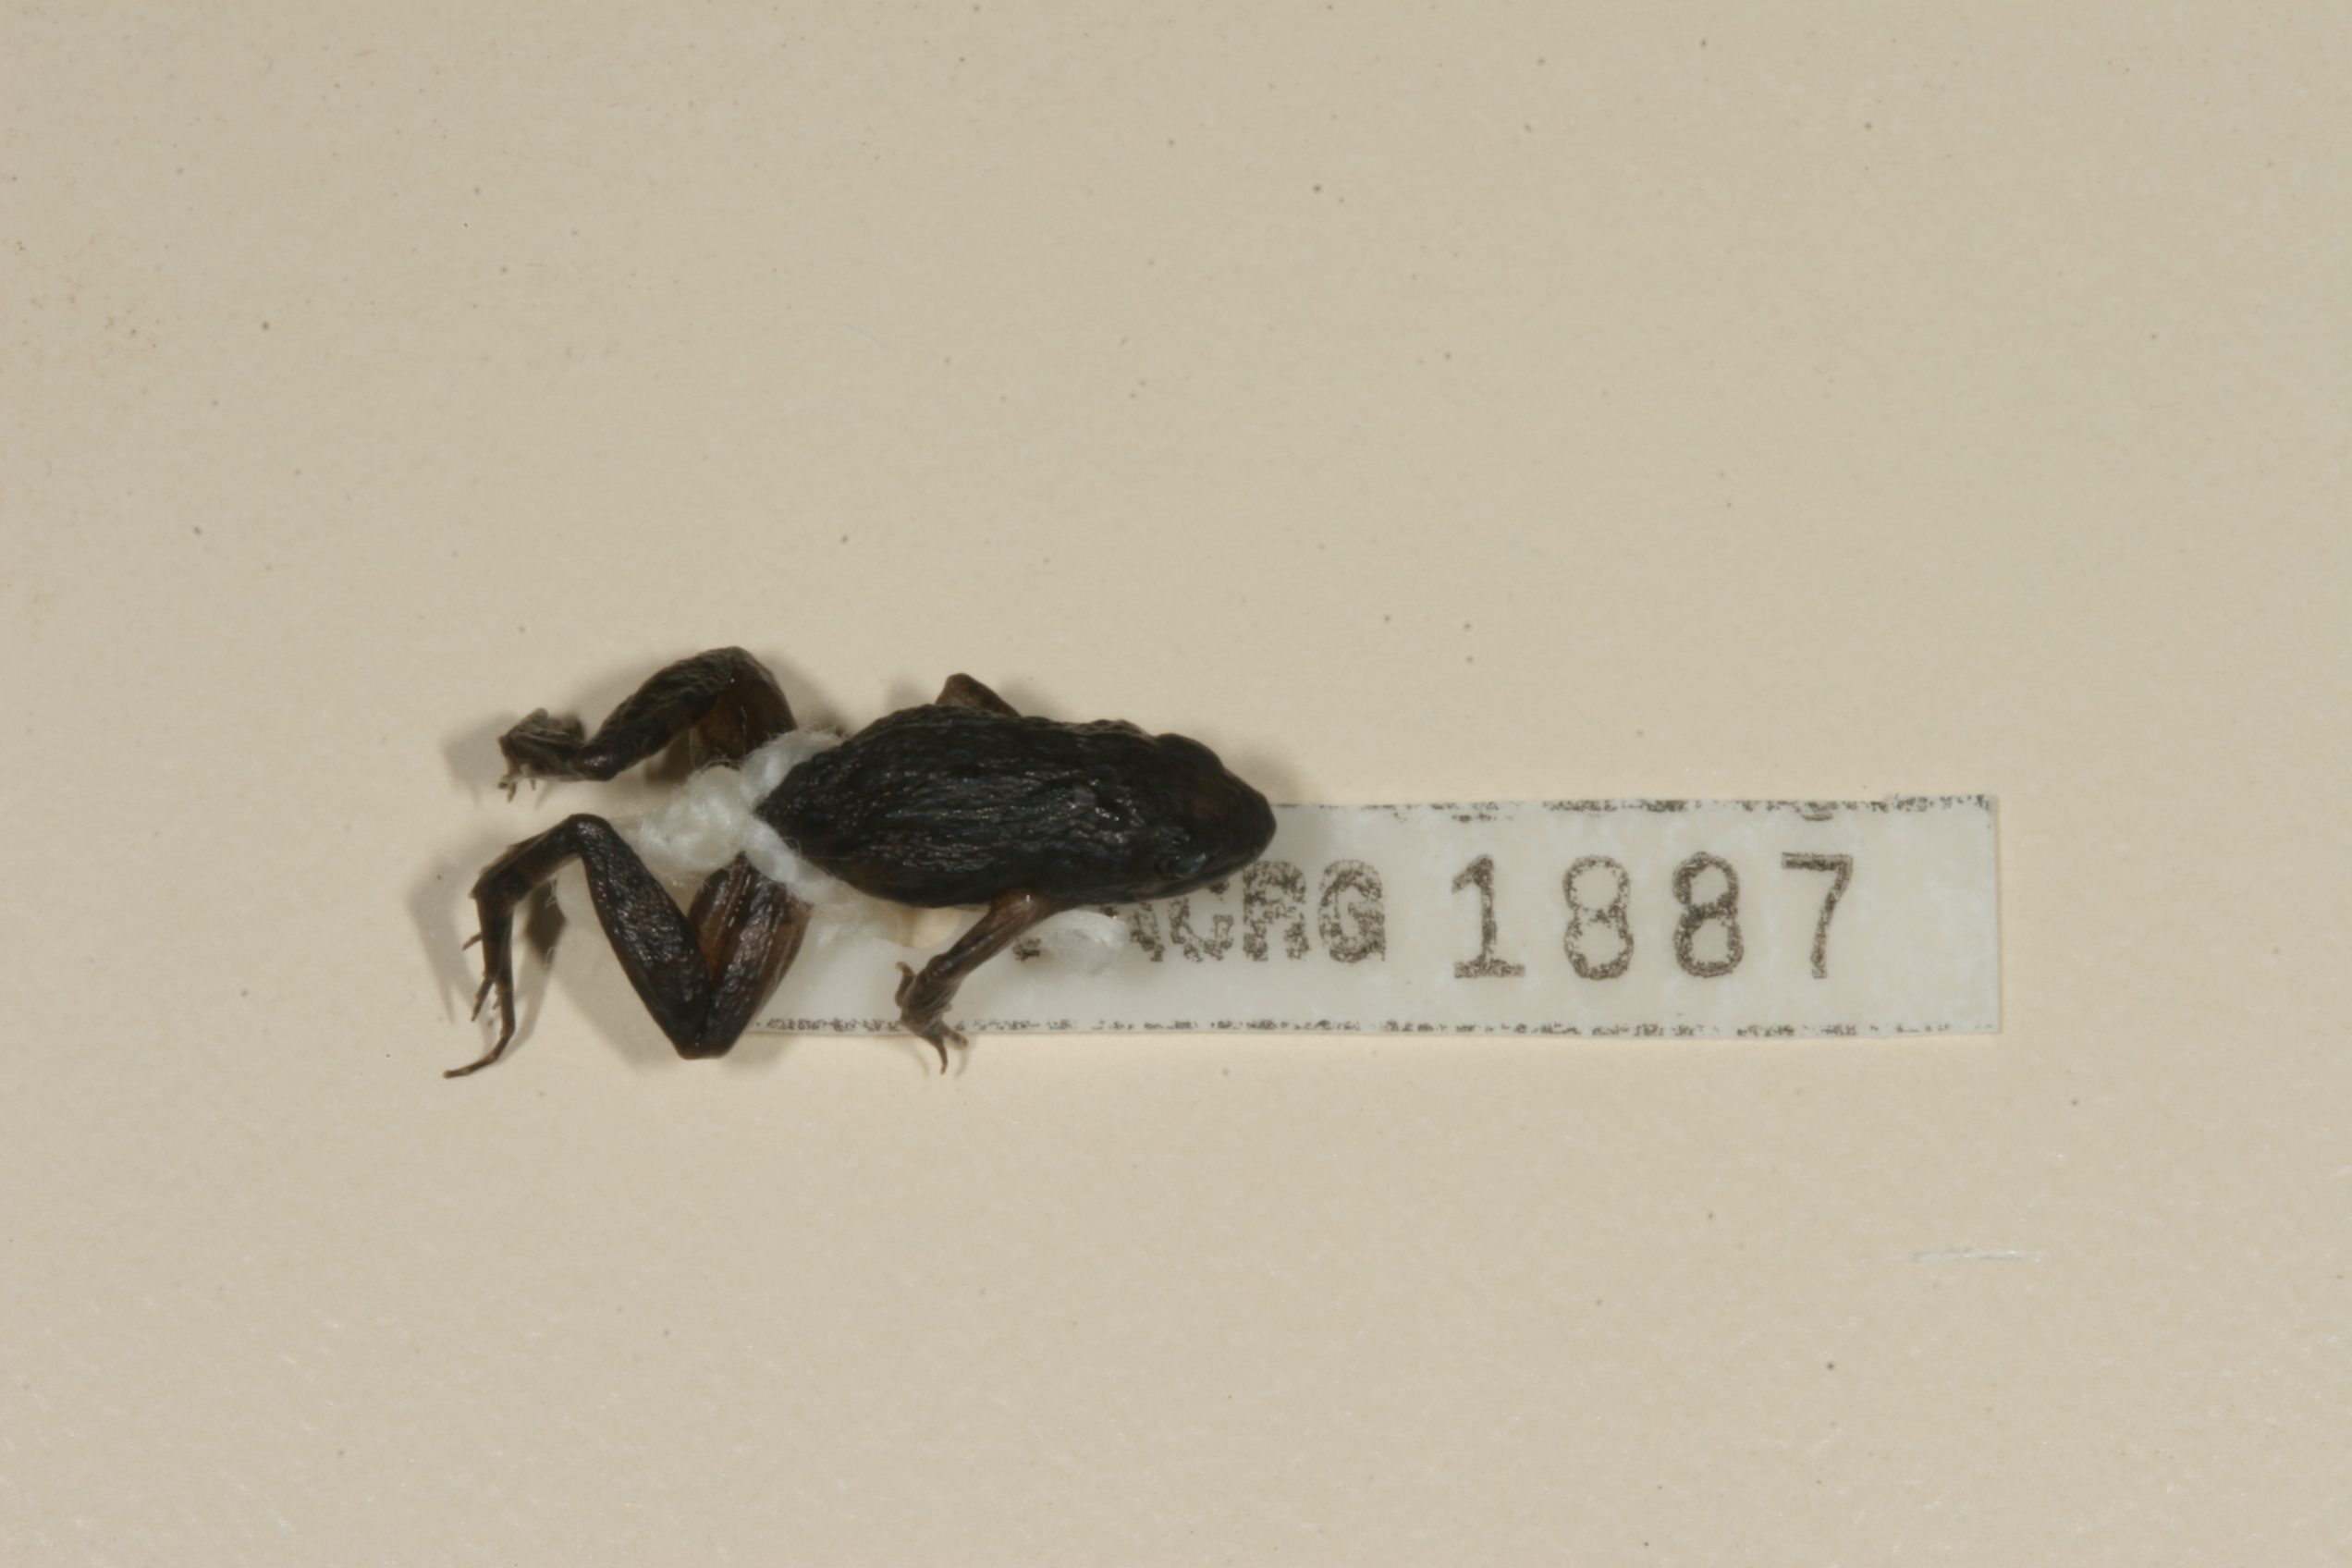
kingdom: Animalia
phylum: Chordata
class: Amphibia
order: Anura
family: Phrynobatrachidae
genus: Phrynobatrachus
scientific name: Phrynobatrachus mababiensis
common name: Dwarf puddle frog
